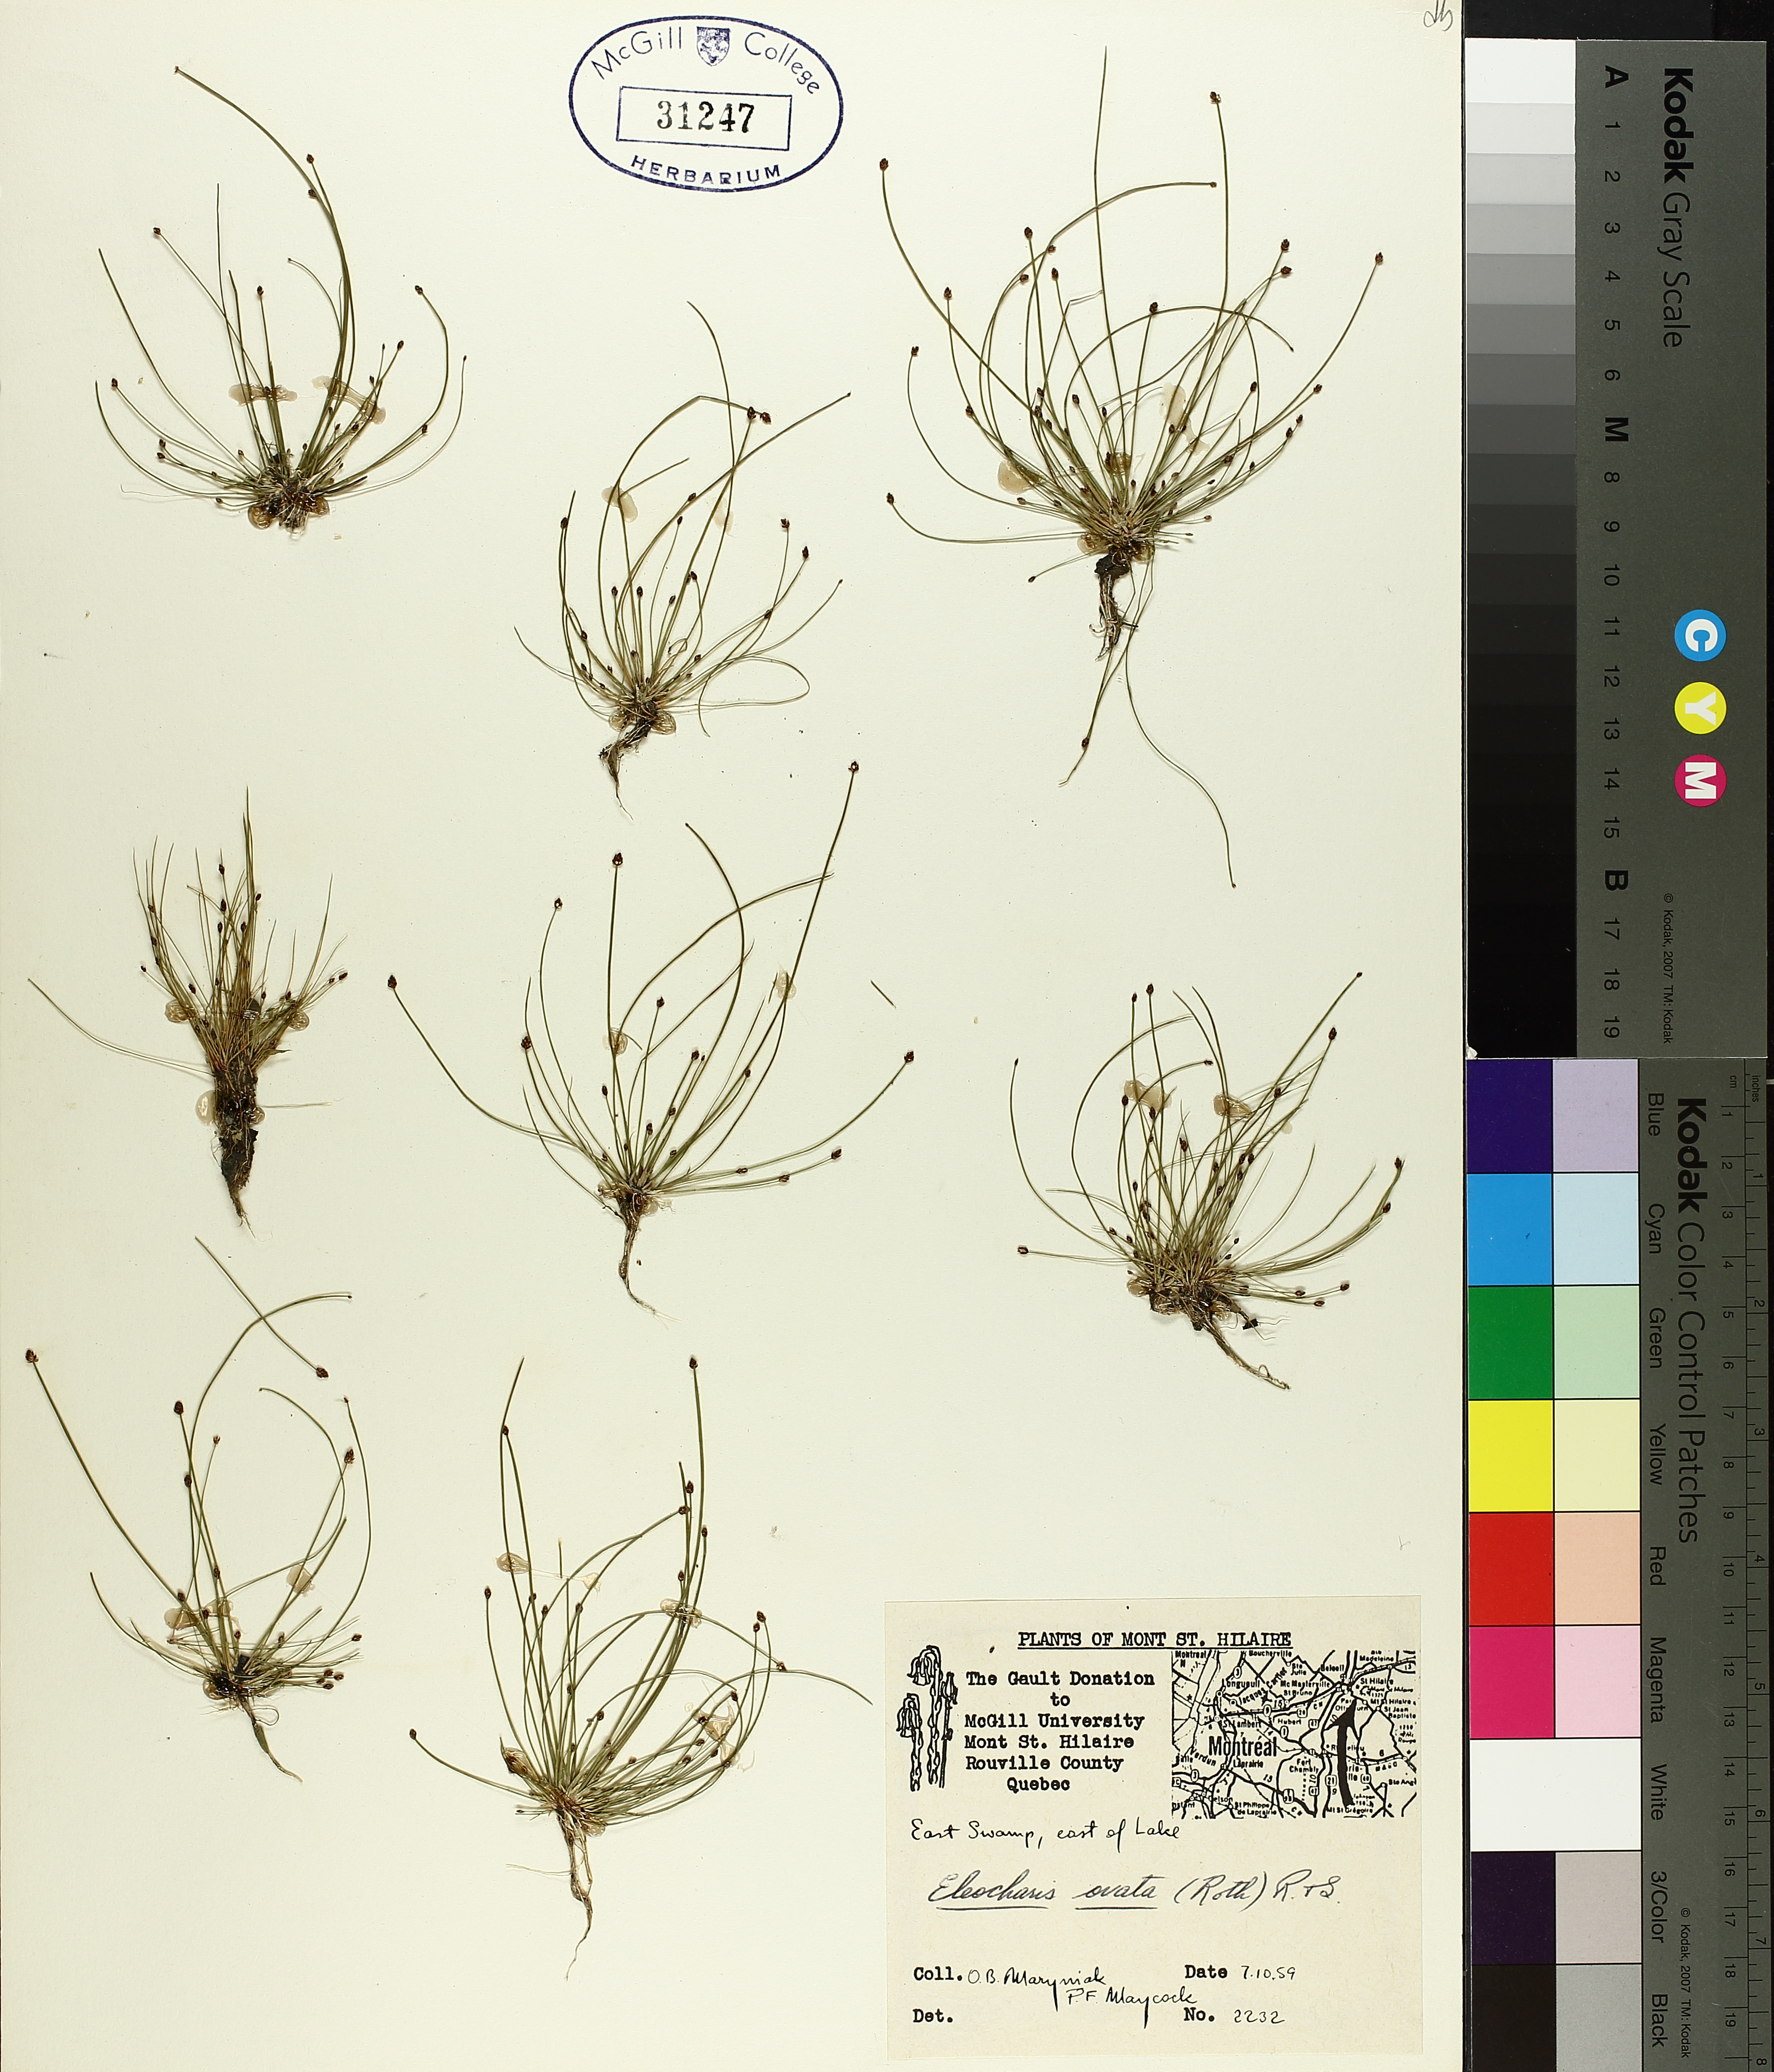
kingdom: Plantae
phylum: Tracheophyta
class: Liliopsida
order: Poales
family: Cyperaceae
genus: Eleocharis
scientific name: Eleocharis ovata
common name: Oval spike-rush
